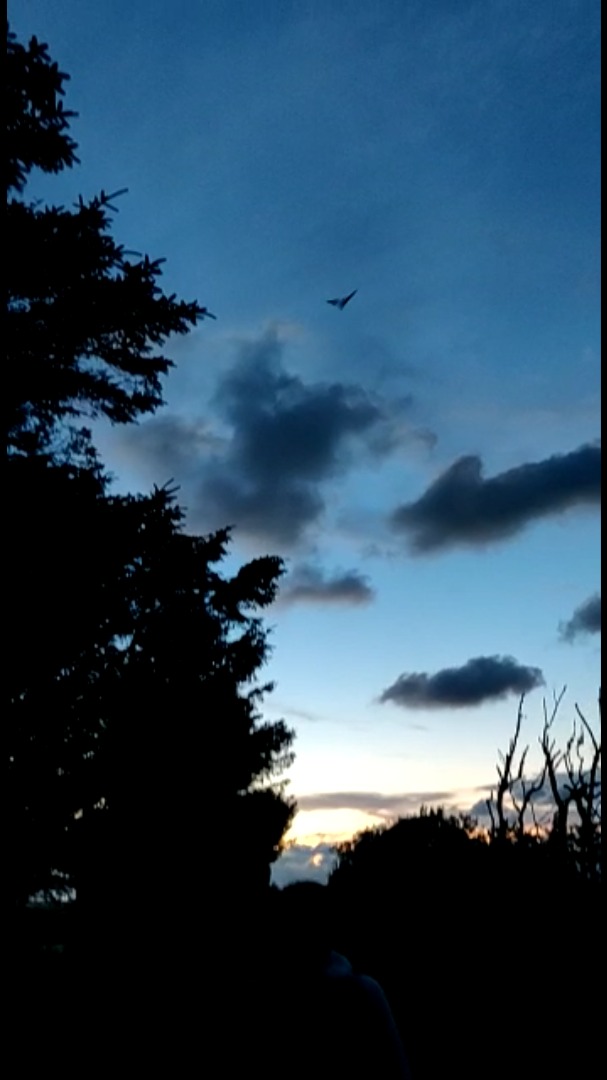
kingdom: Animalia
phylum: Chordata
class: Mammalia
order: Chiroptera
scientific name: Chiroptera
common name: Flagermus
